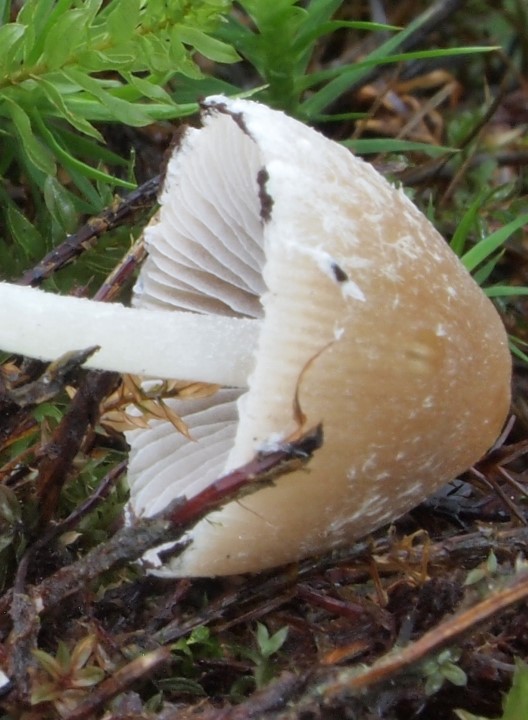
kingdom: Fungi
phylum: Basidiomycota
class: Agaricomycetes
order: Agaricales
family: Psathyrellaceae
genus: Psathyrella
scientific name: Psathyrella fibrillosa
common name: almindelig mørkhat
